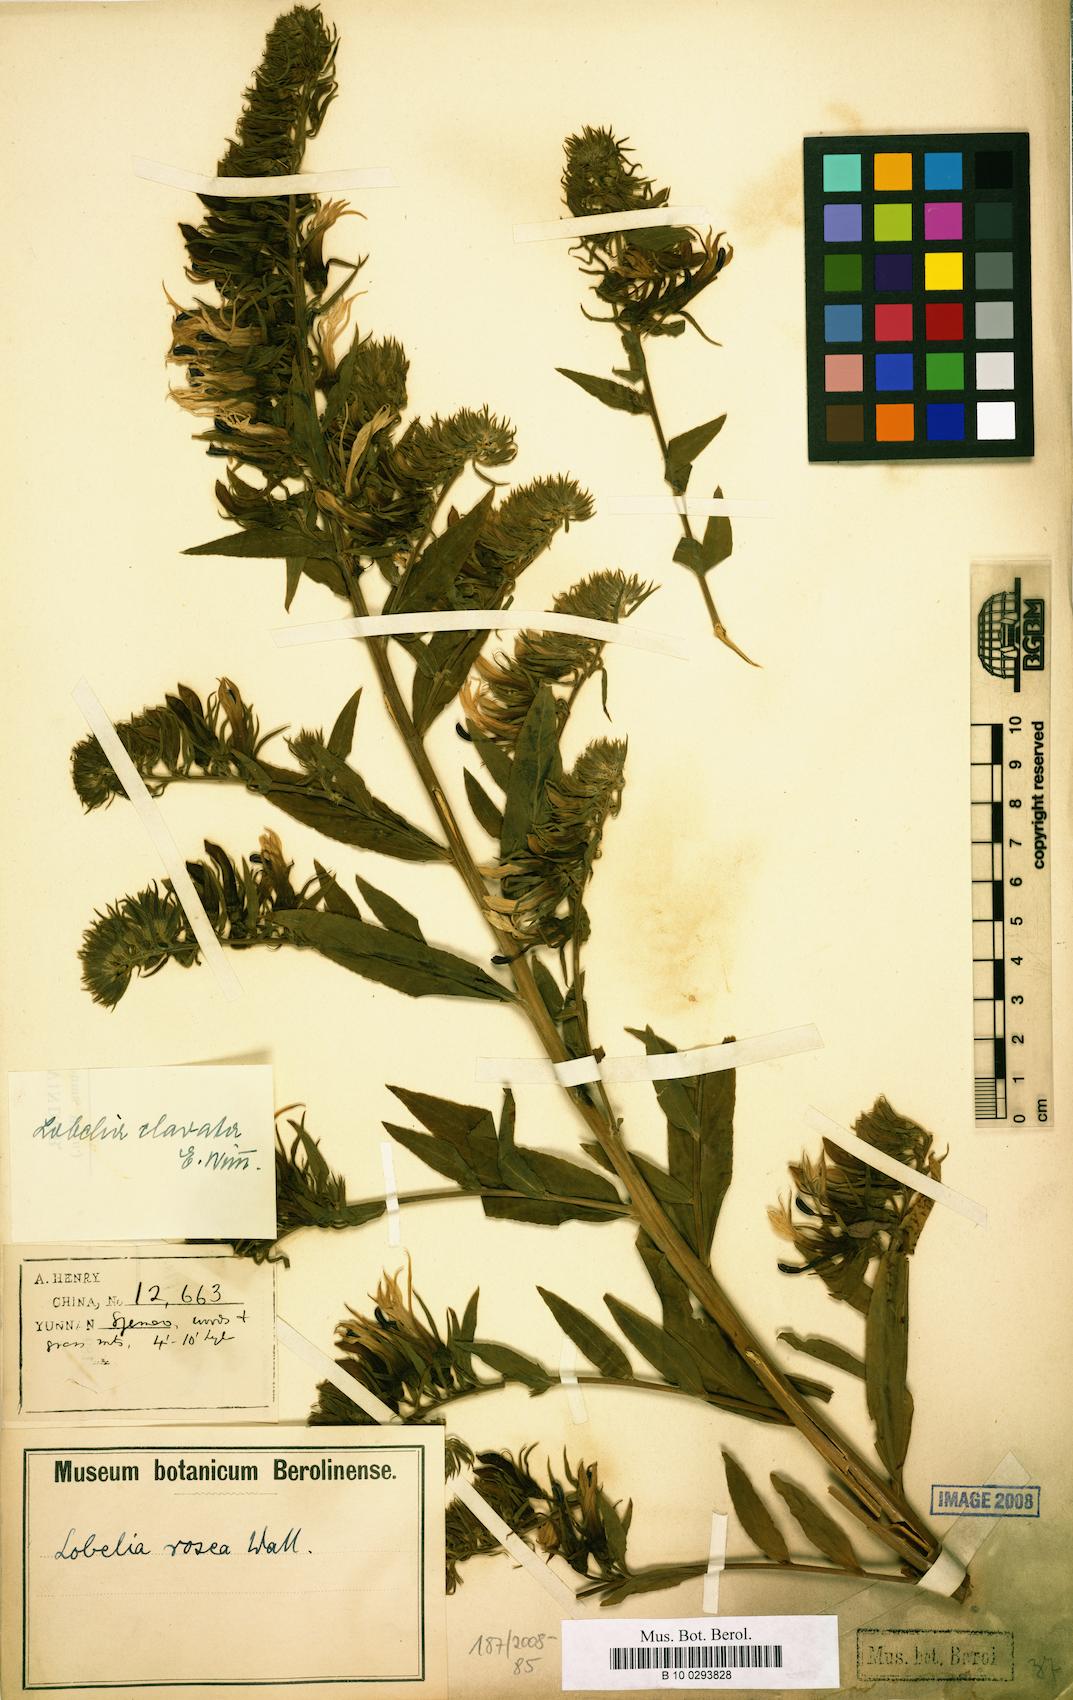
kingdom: Plantae
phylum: Tracheophyta
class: Magnoliopsida
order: Asterales
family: Campanulaceae
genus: Lobelia
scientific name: Lobelia clavata
